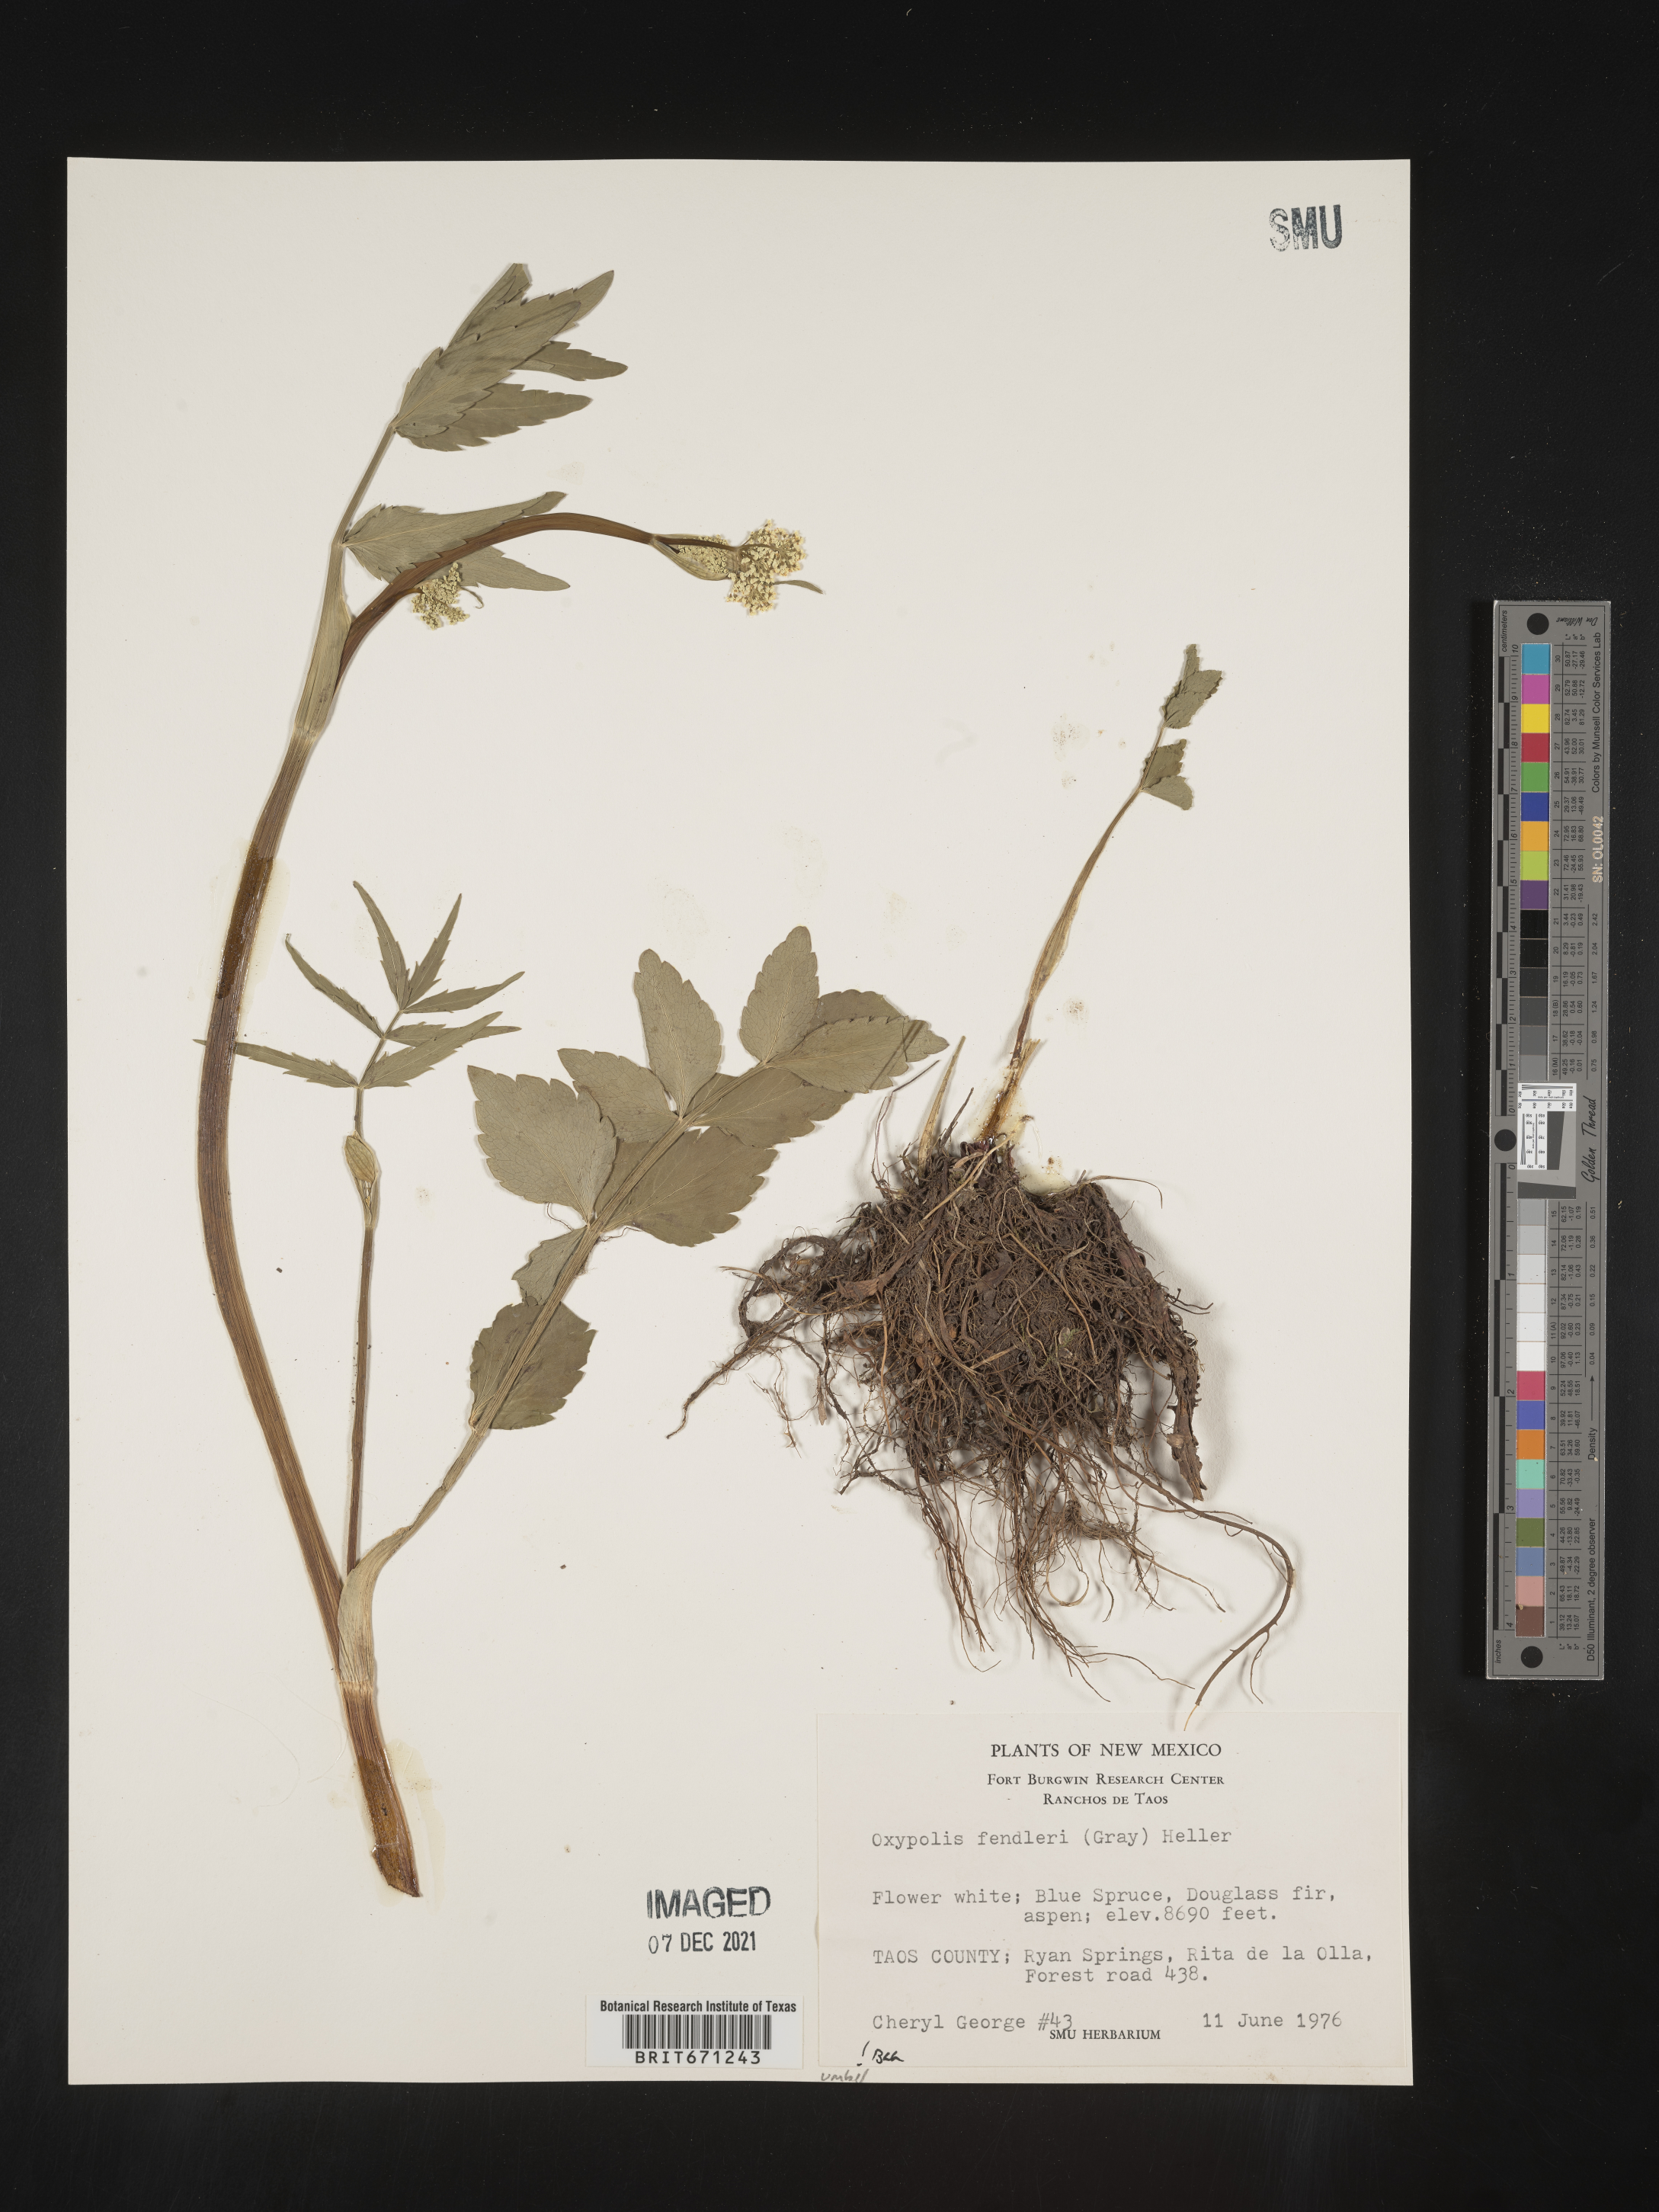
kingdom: Plantae
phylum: Tracheophyta
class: Magnoliopsida
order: Apiales
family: Apiaceae
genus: Oxypolis
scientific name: Oxypolis fendleri
